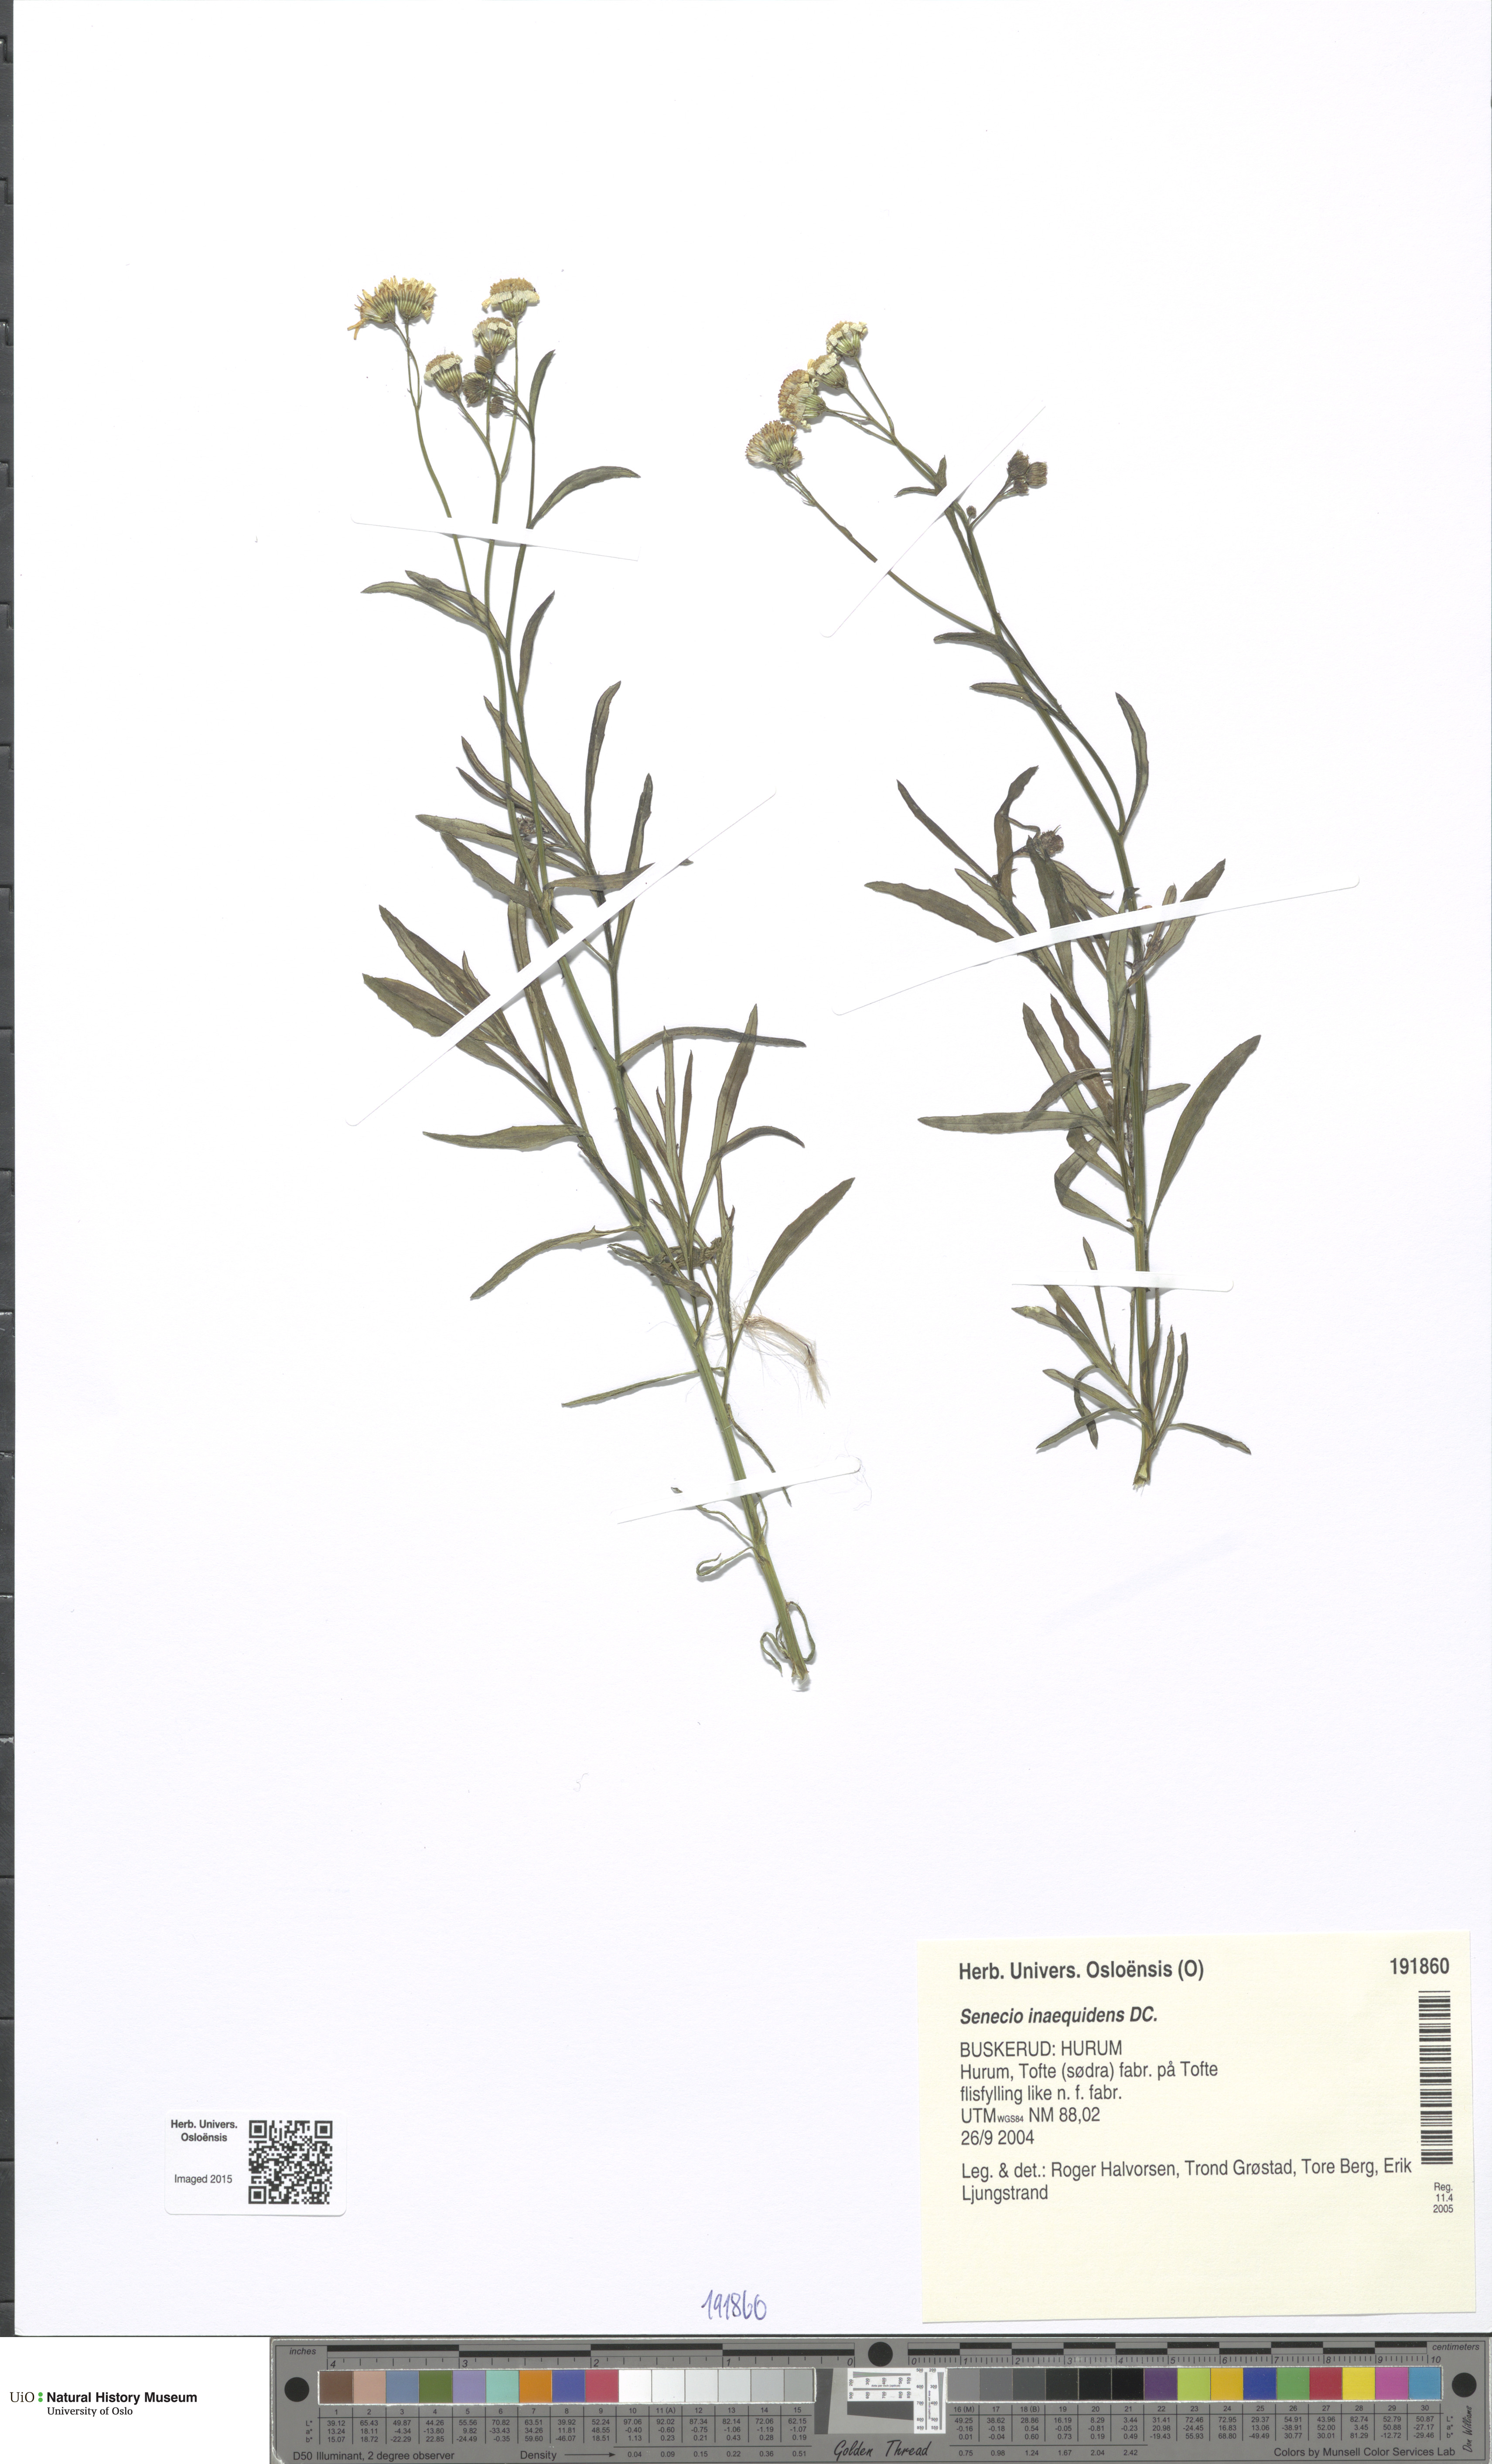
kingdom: Plantae
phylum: Tracheophyta
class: Magnoliopsida
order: Asterales
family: Asteraceae
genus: Senecio
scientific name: Senecio inaequidens
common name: Narrow-leaved ragwort
